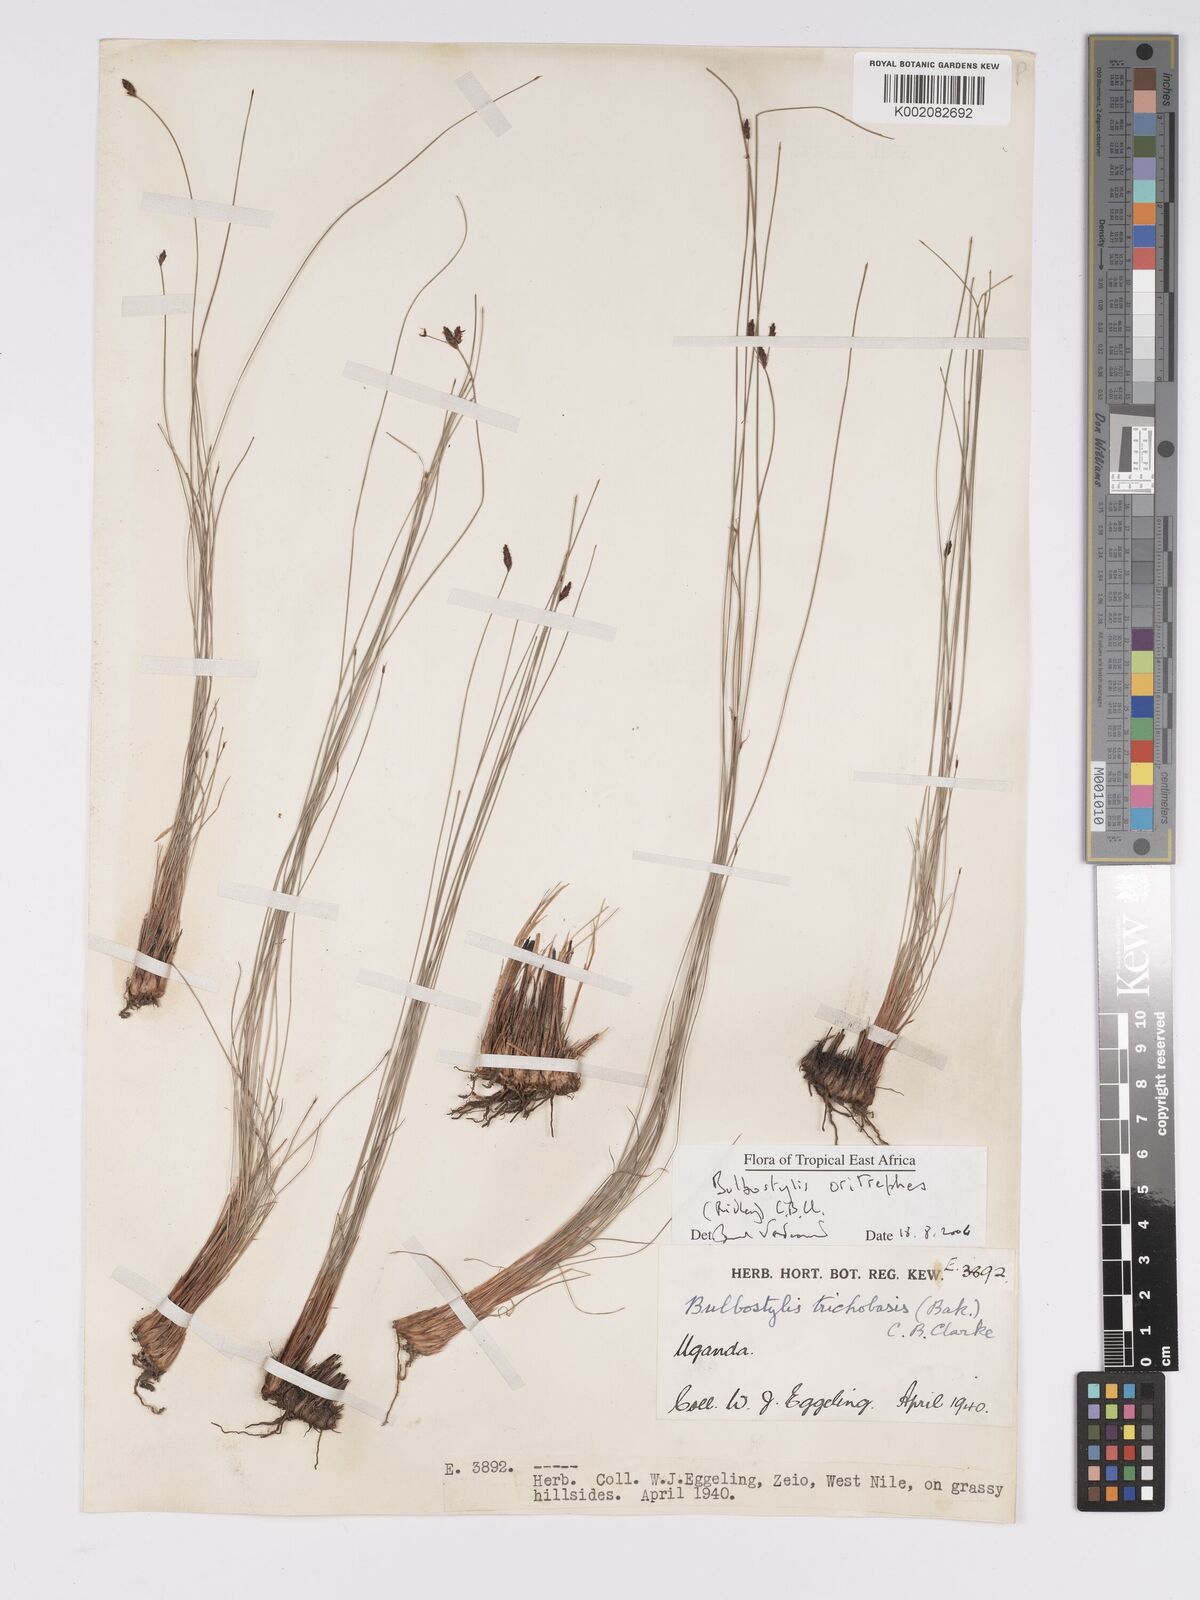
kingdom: Plantae
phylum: Tracheophyta
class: Liliopsida
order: Poales
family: Cyperaceae
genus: Bulbostylis
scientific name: Bulbostylis oritrephes
